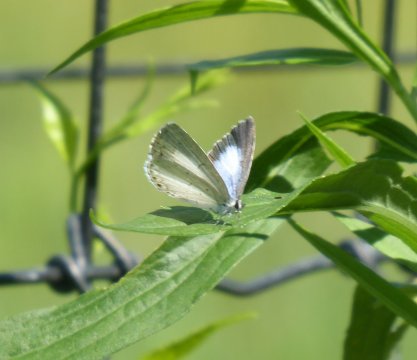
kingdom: Animalia
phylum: Arthropoda
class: Insecta
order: Lepidoptera
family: Lycaenidae
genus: Cyaniris
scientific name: Cyaniris neglecta
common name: Summer Azure
